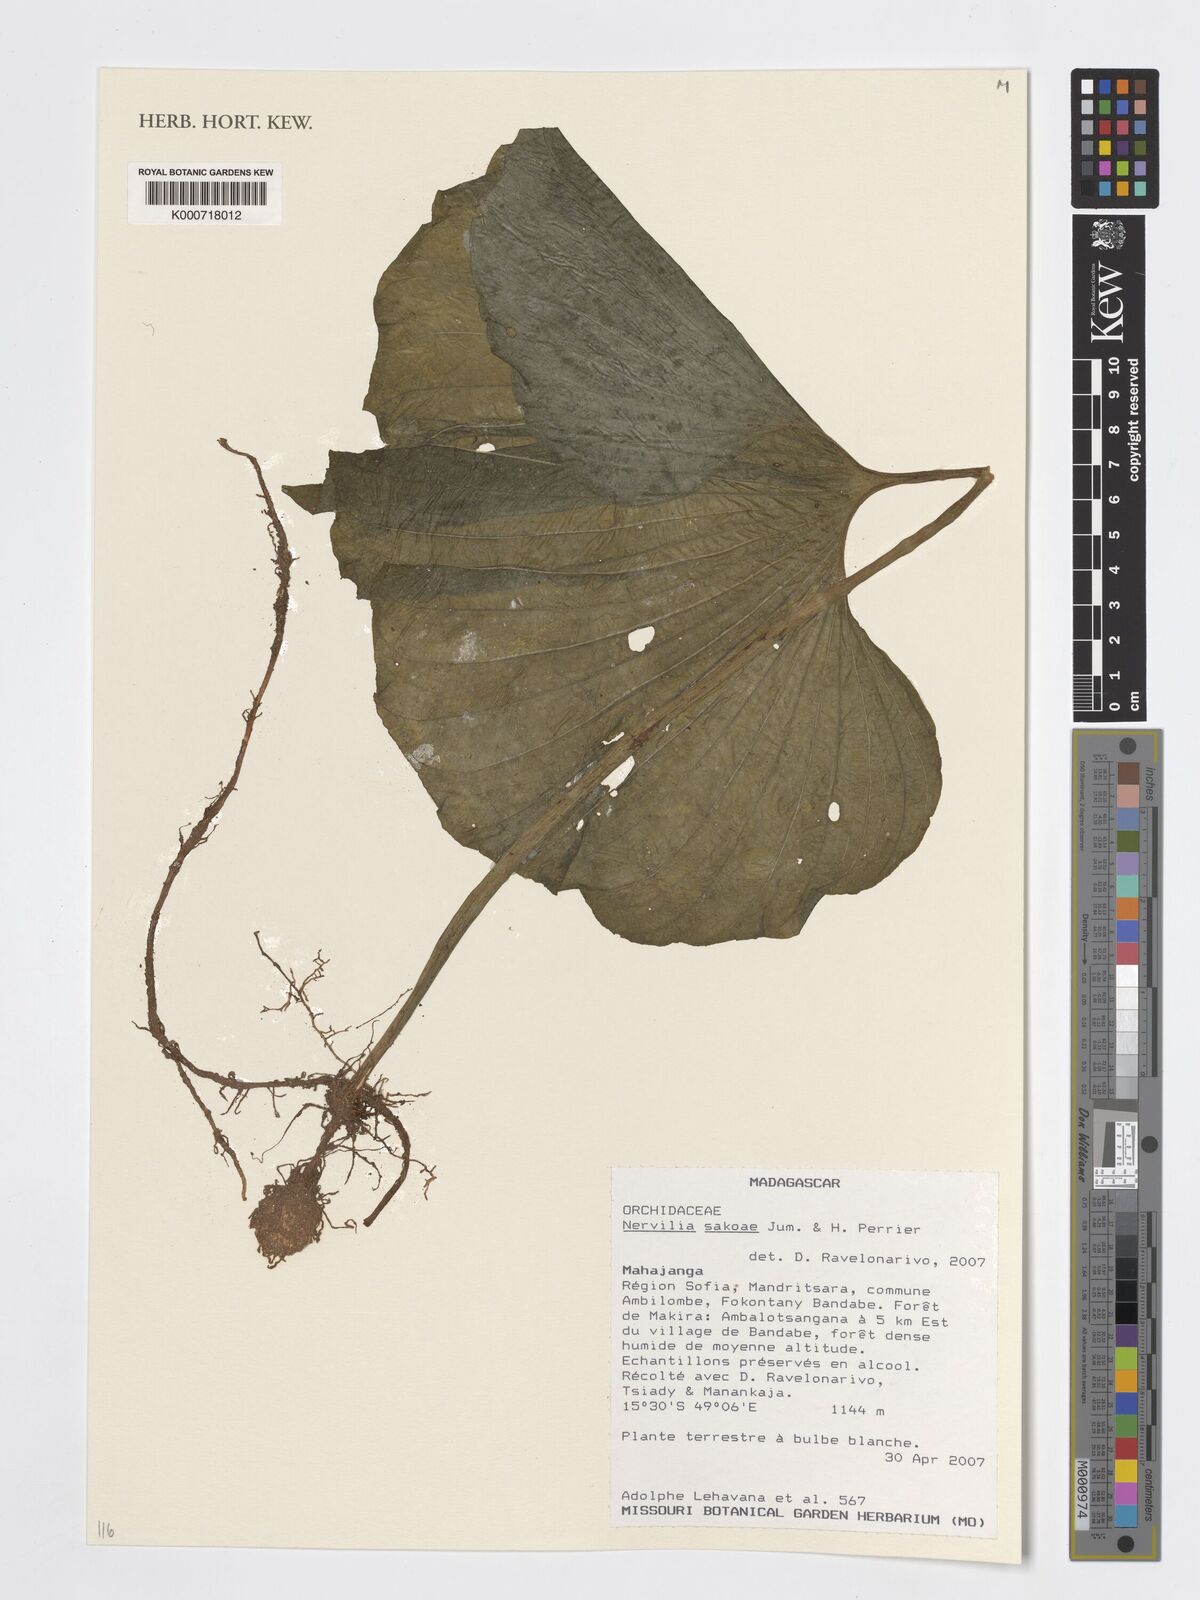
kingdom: Plantae
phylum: Tracheophyta
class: Liliopsida
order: Asparagales
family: Orchidaceae
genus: Nervilia
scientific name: Nervilia
